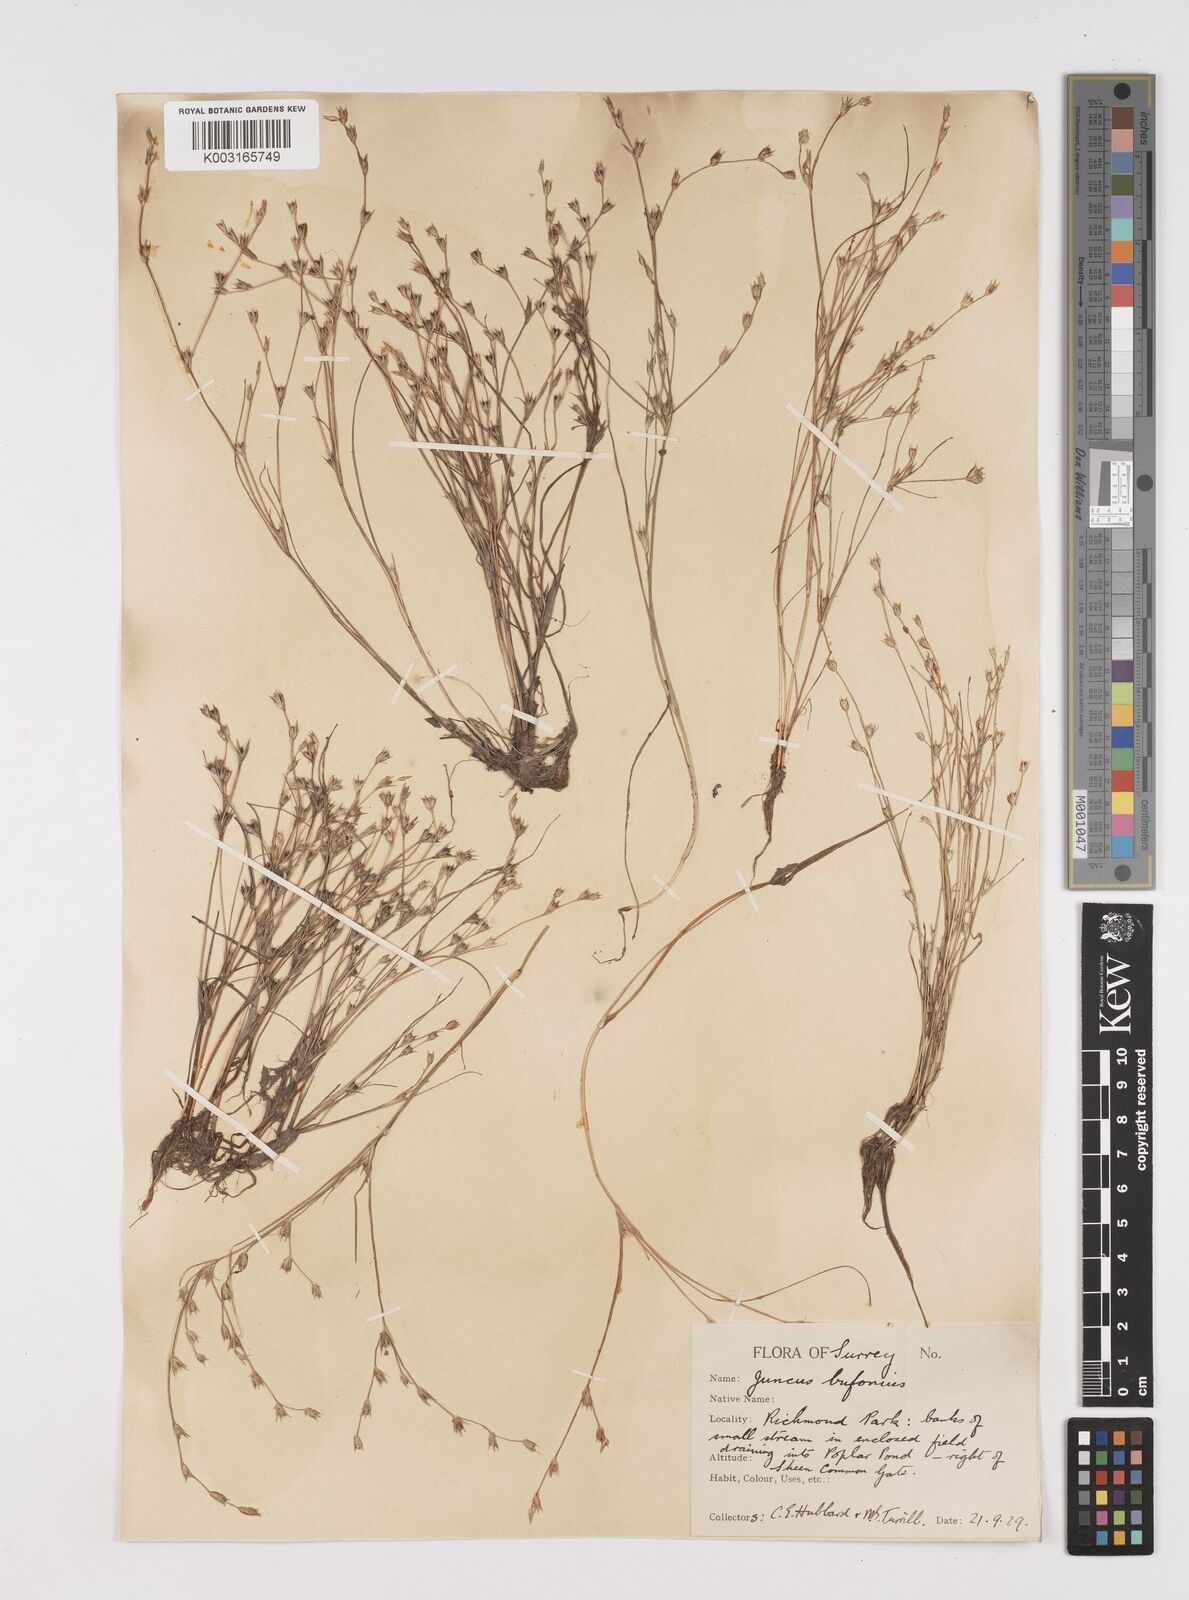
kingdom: Plantae
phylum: Tracheophyta
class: Liliopsida
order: Poales
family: Juncaceae
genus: Juncus
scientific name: Juncus bufonius
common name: Toad rush
